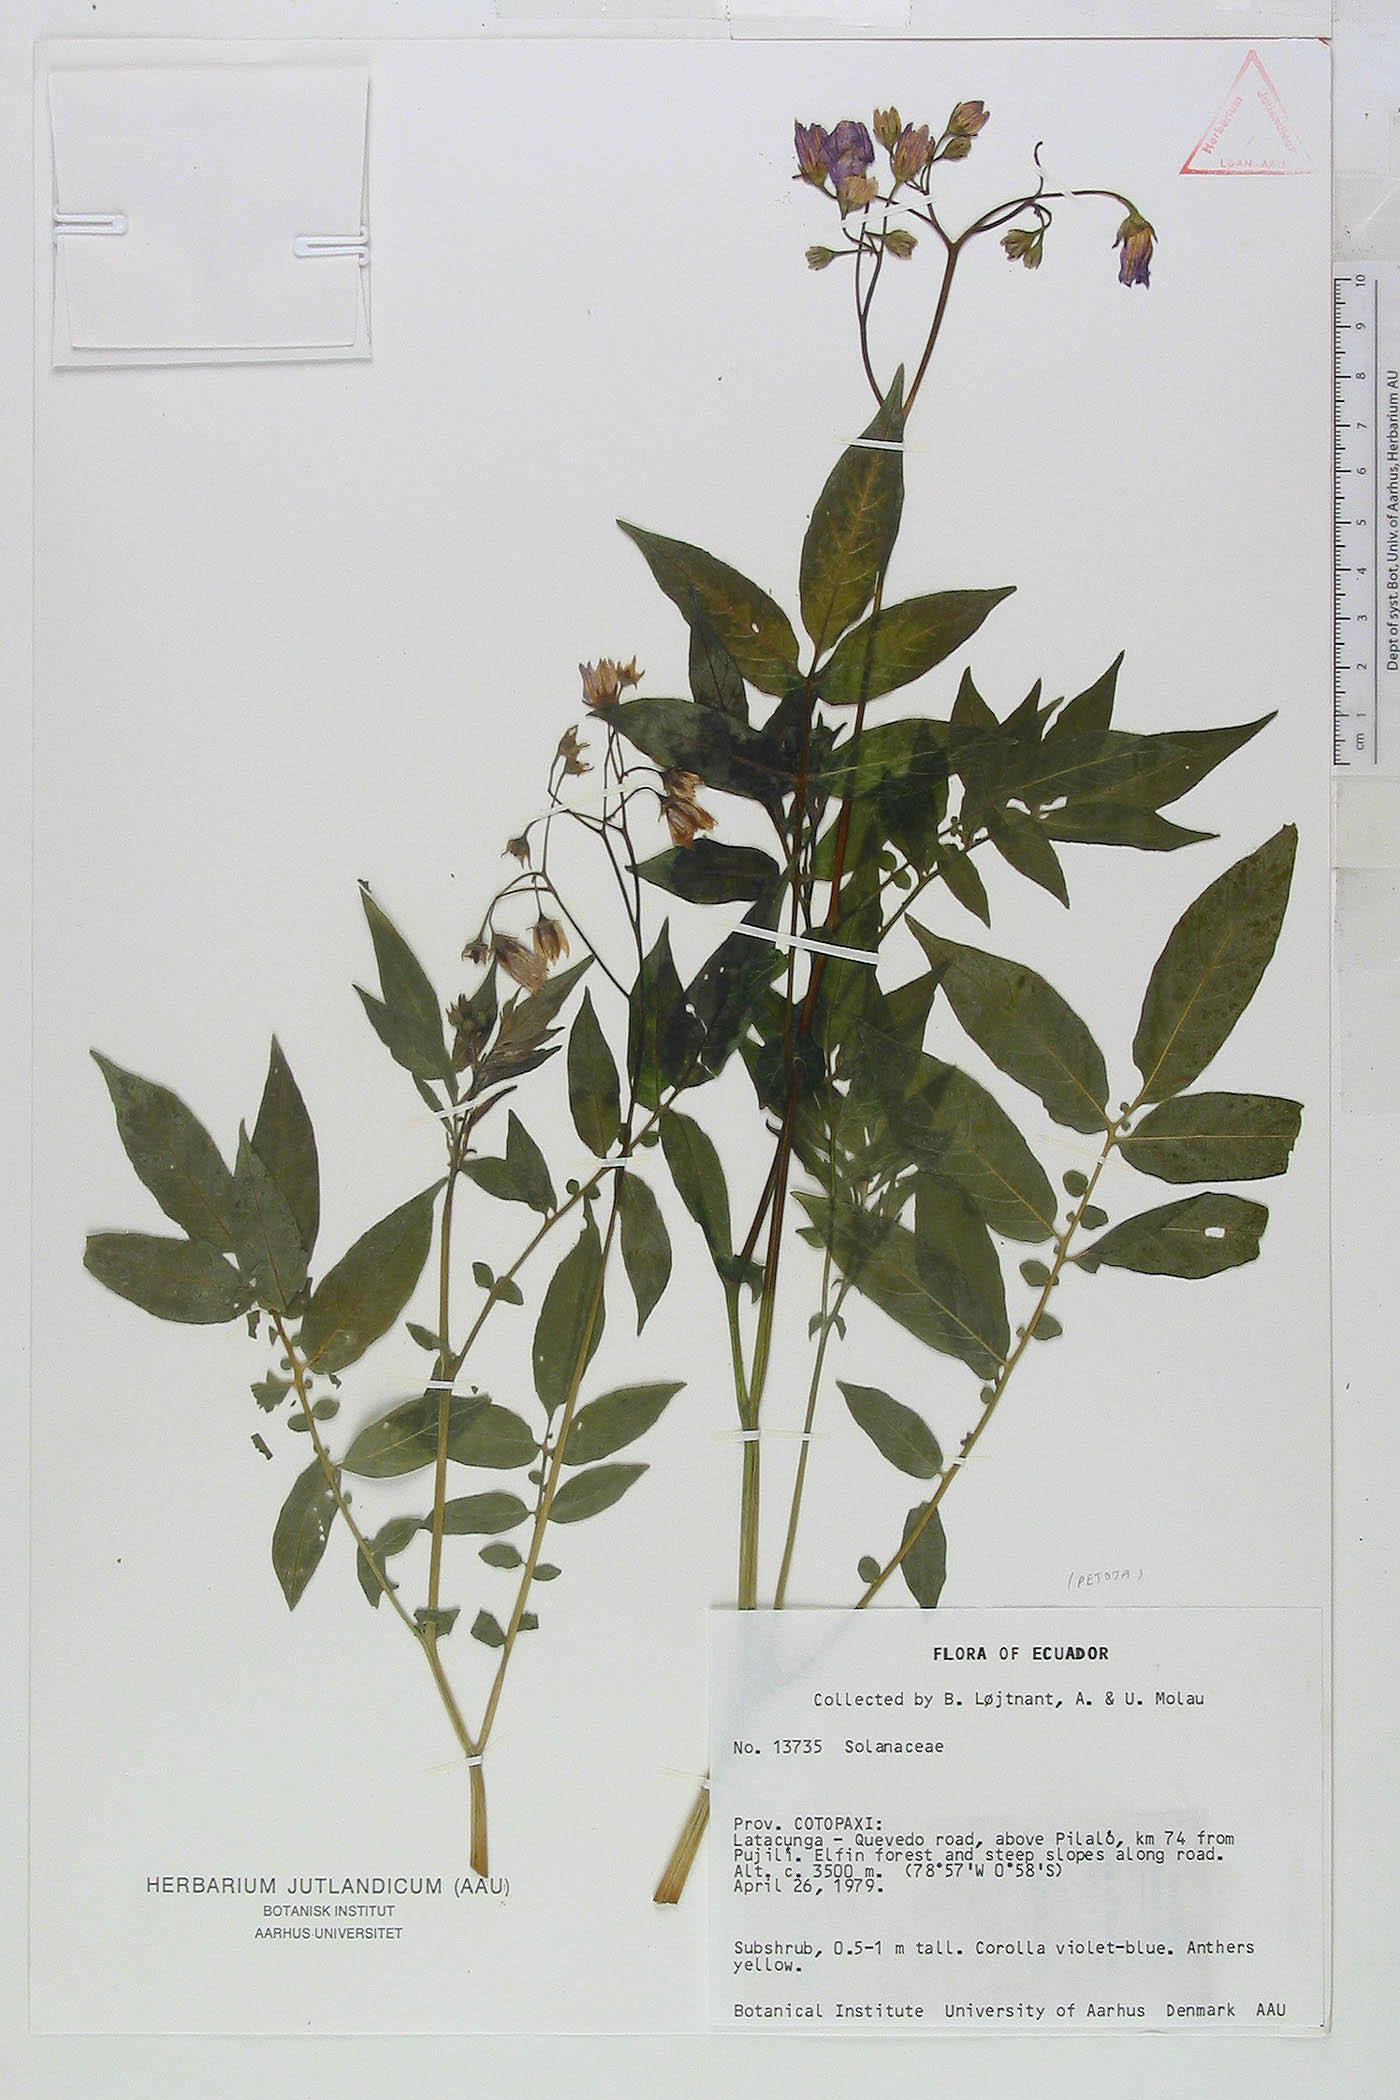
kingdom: Plantae
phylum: Tracheophyta
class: Magnoliopsida
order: Solanales
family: Solanaceae
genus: Solanum
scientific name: Solanum colombianum
